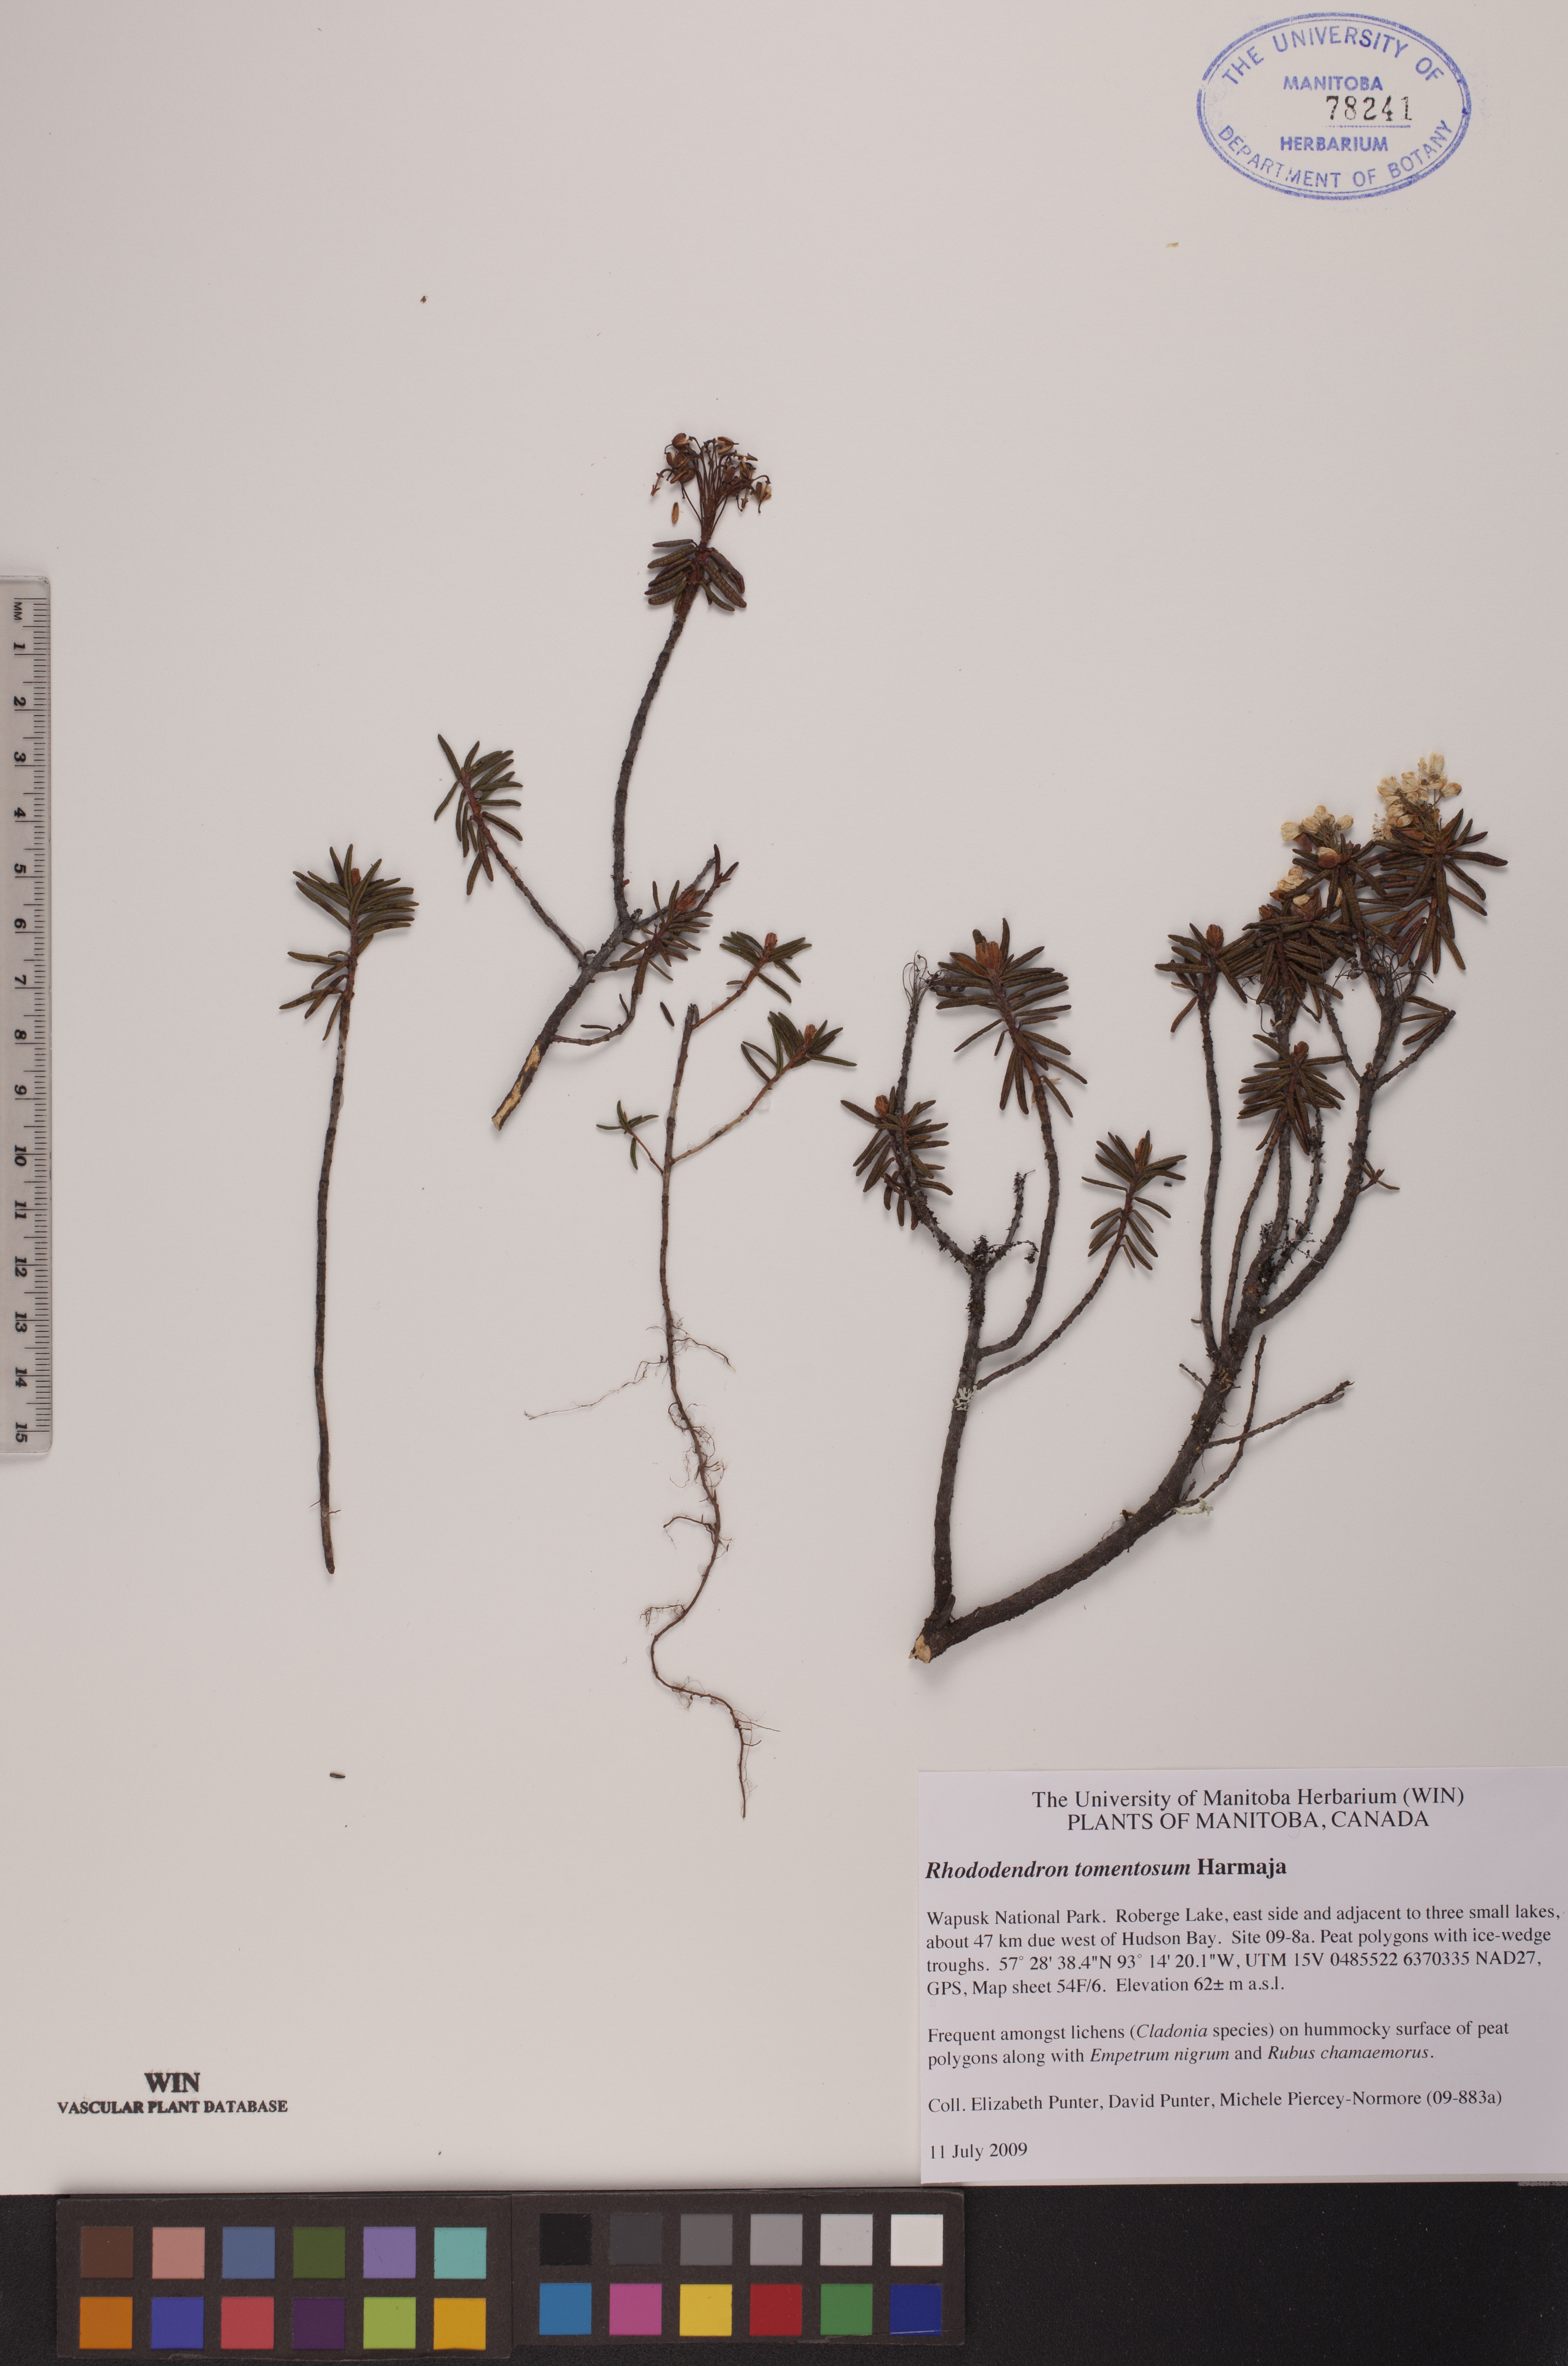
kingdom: Plantae
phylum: Tracheophyta
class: Magnoliopsida
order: Ericales
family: Ericaceae
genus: Rhododendron
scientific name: Rhododendron tomentosum
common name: Marsh labrador tea
